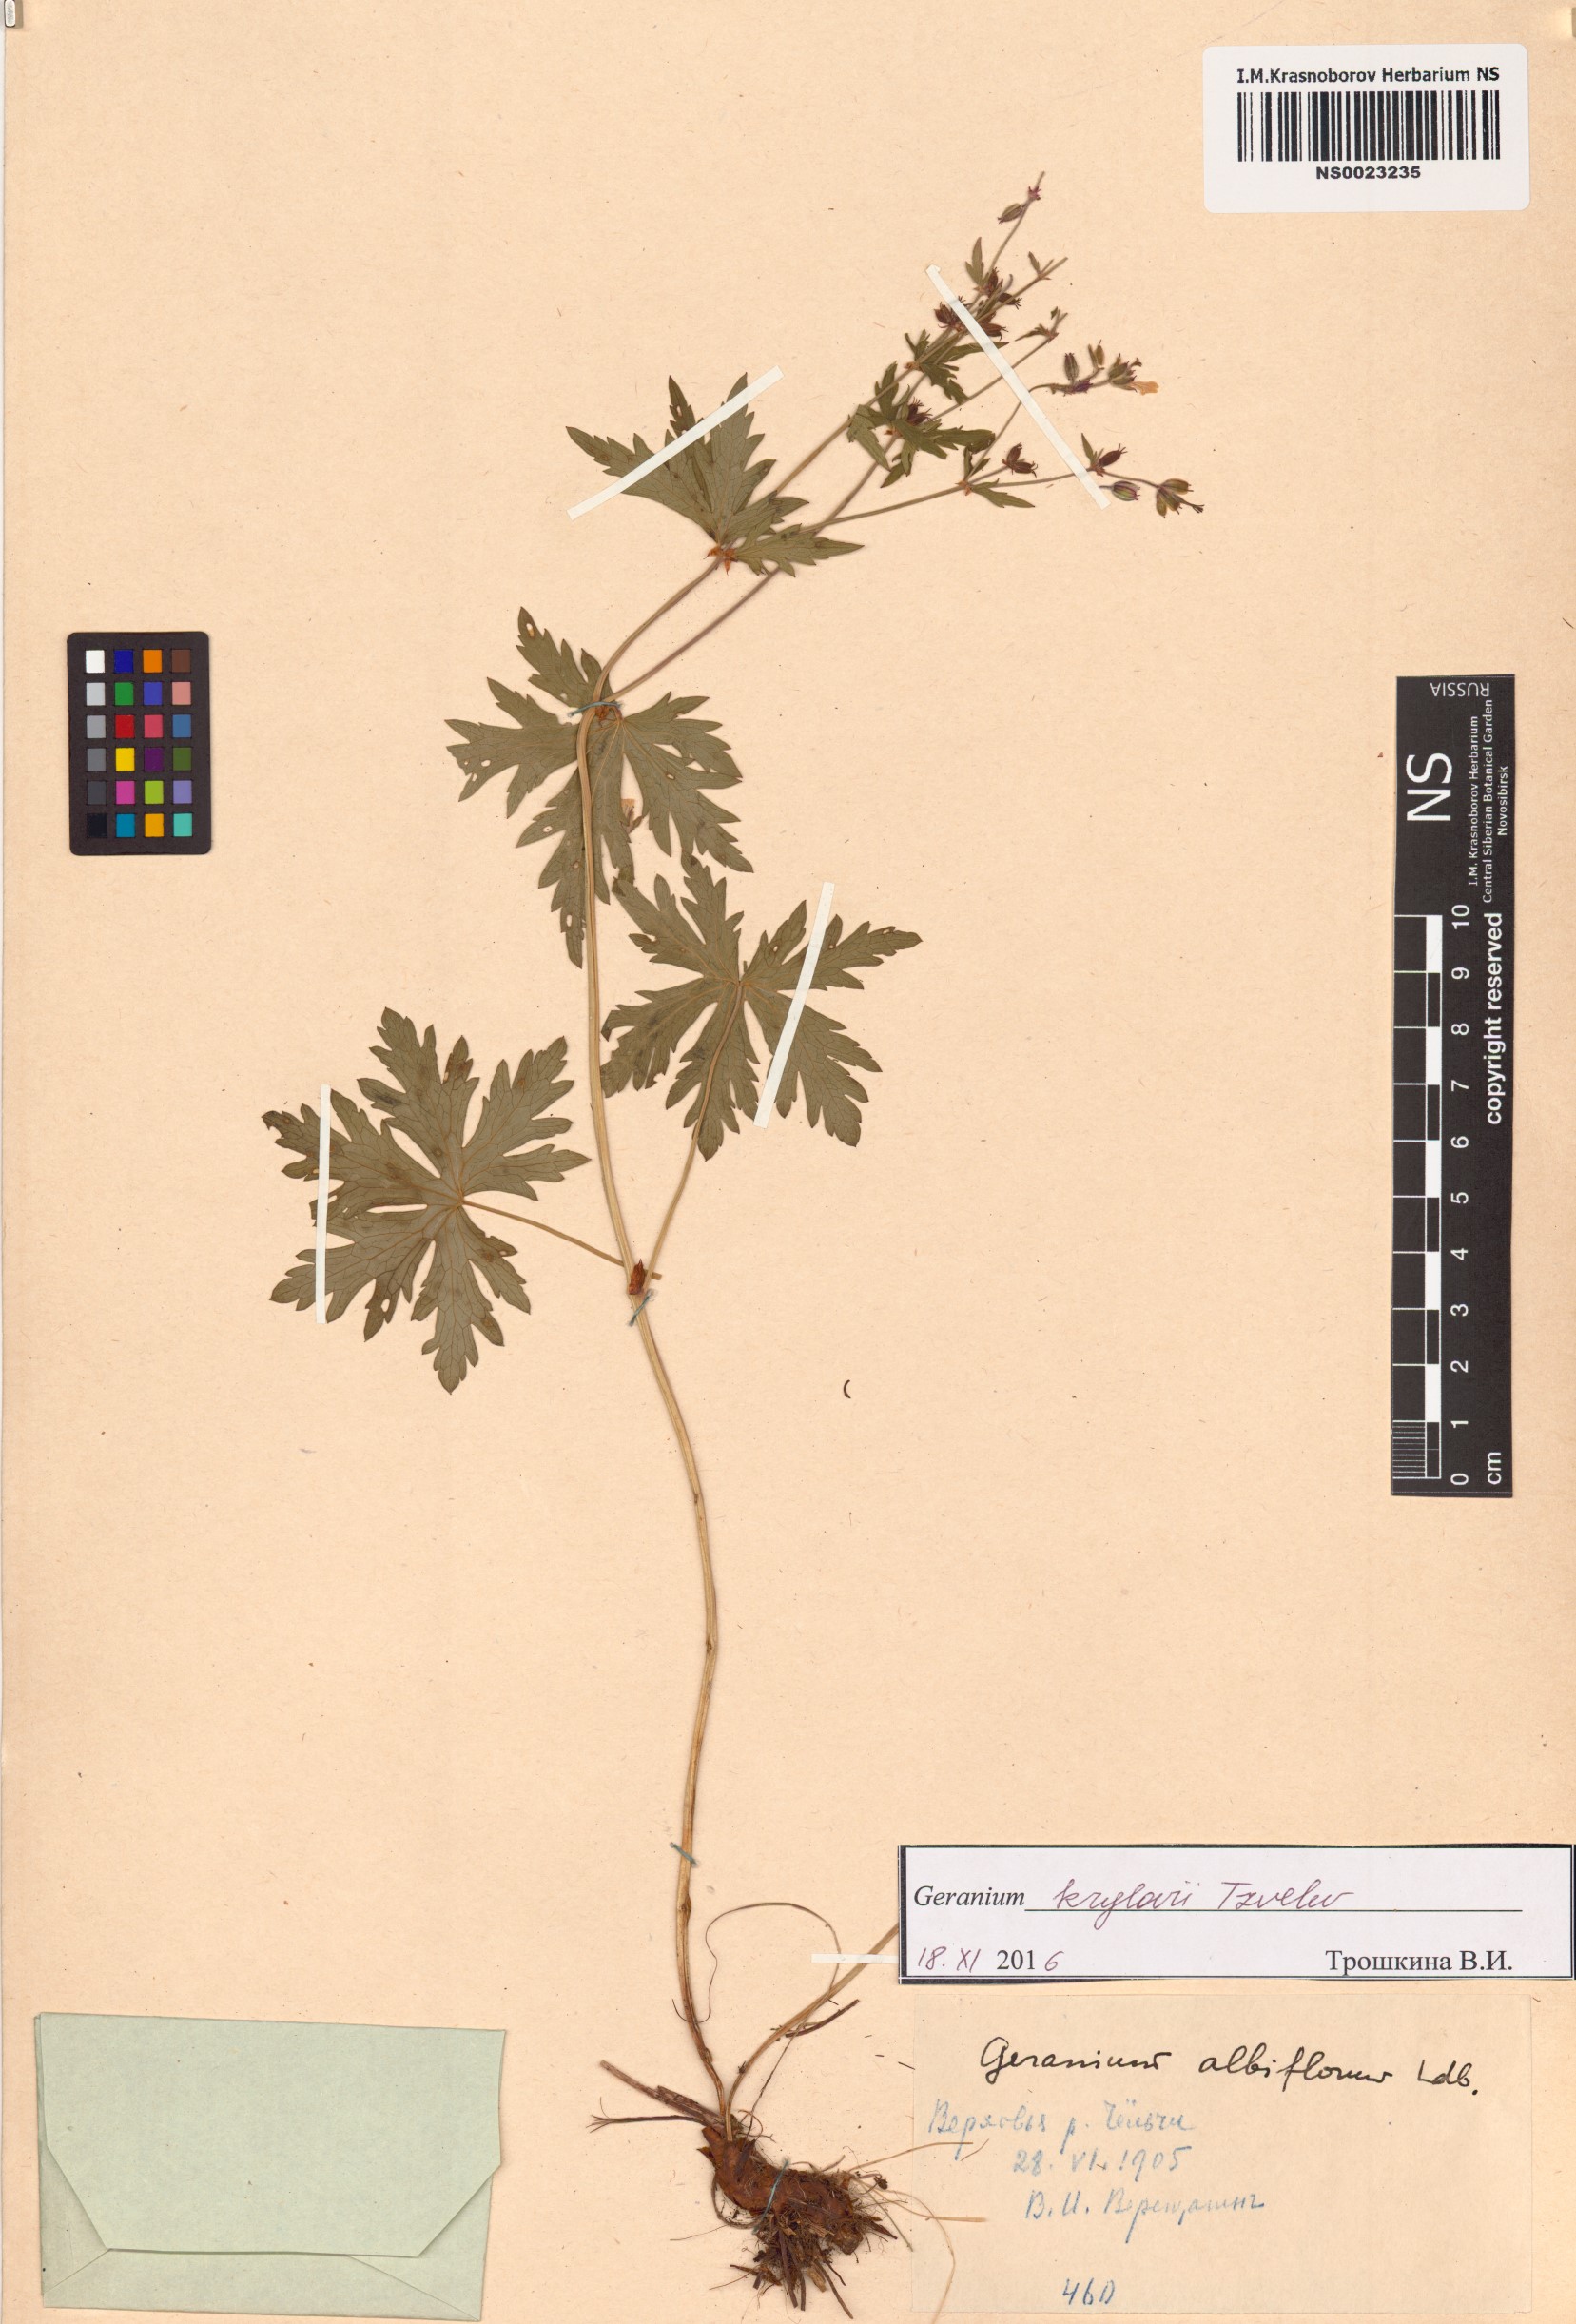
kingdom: Plantae
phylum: Tracheophyta
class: Magnoliopsida
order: Geraniales
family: Geraniaceae
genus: Geranium
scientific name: Geranium sylvaticum
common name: Wood crane's-bill
